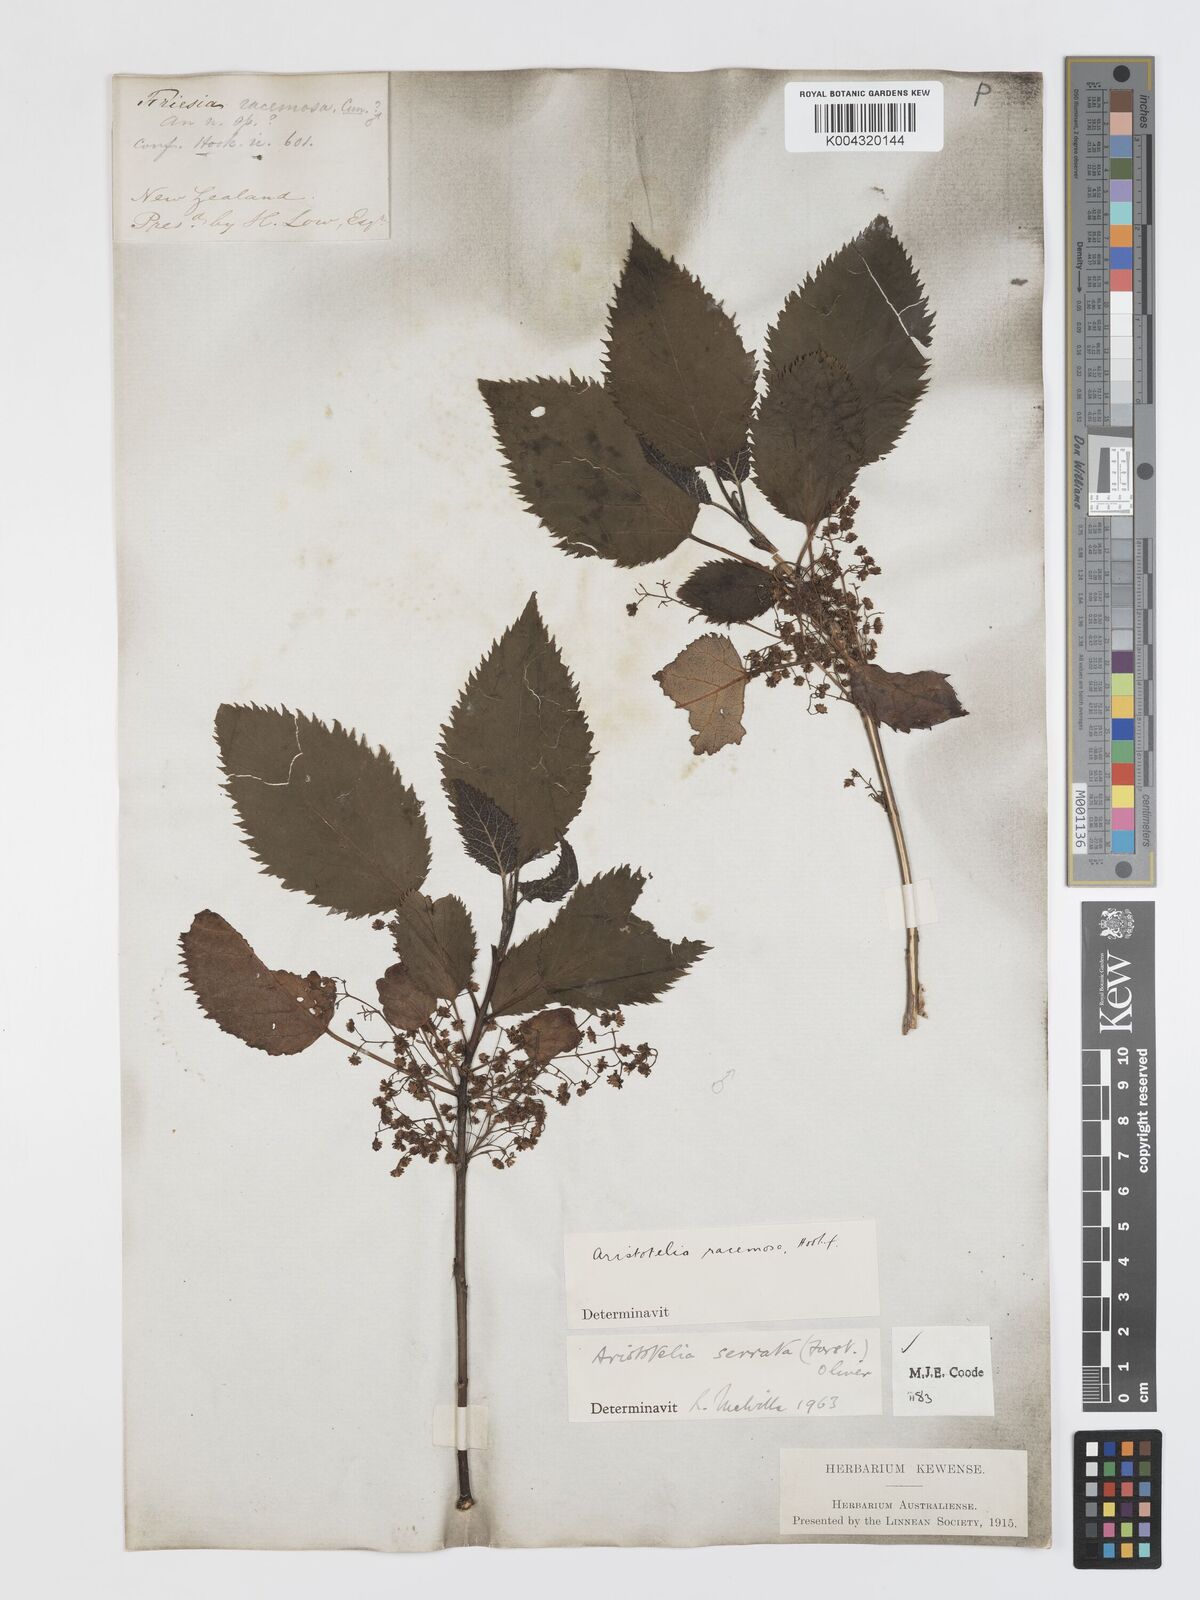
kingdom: Plantae
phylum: Tracheophyta
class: Magnoliopsida
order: Oxalidales
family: Elaeocarpaceae
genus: Aristotelia
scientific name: Aristotelia serrata
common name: New zealand wineberry
